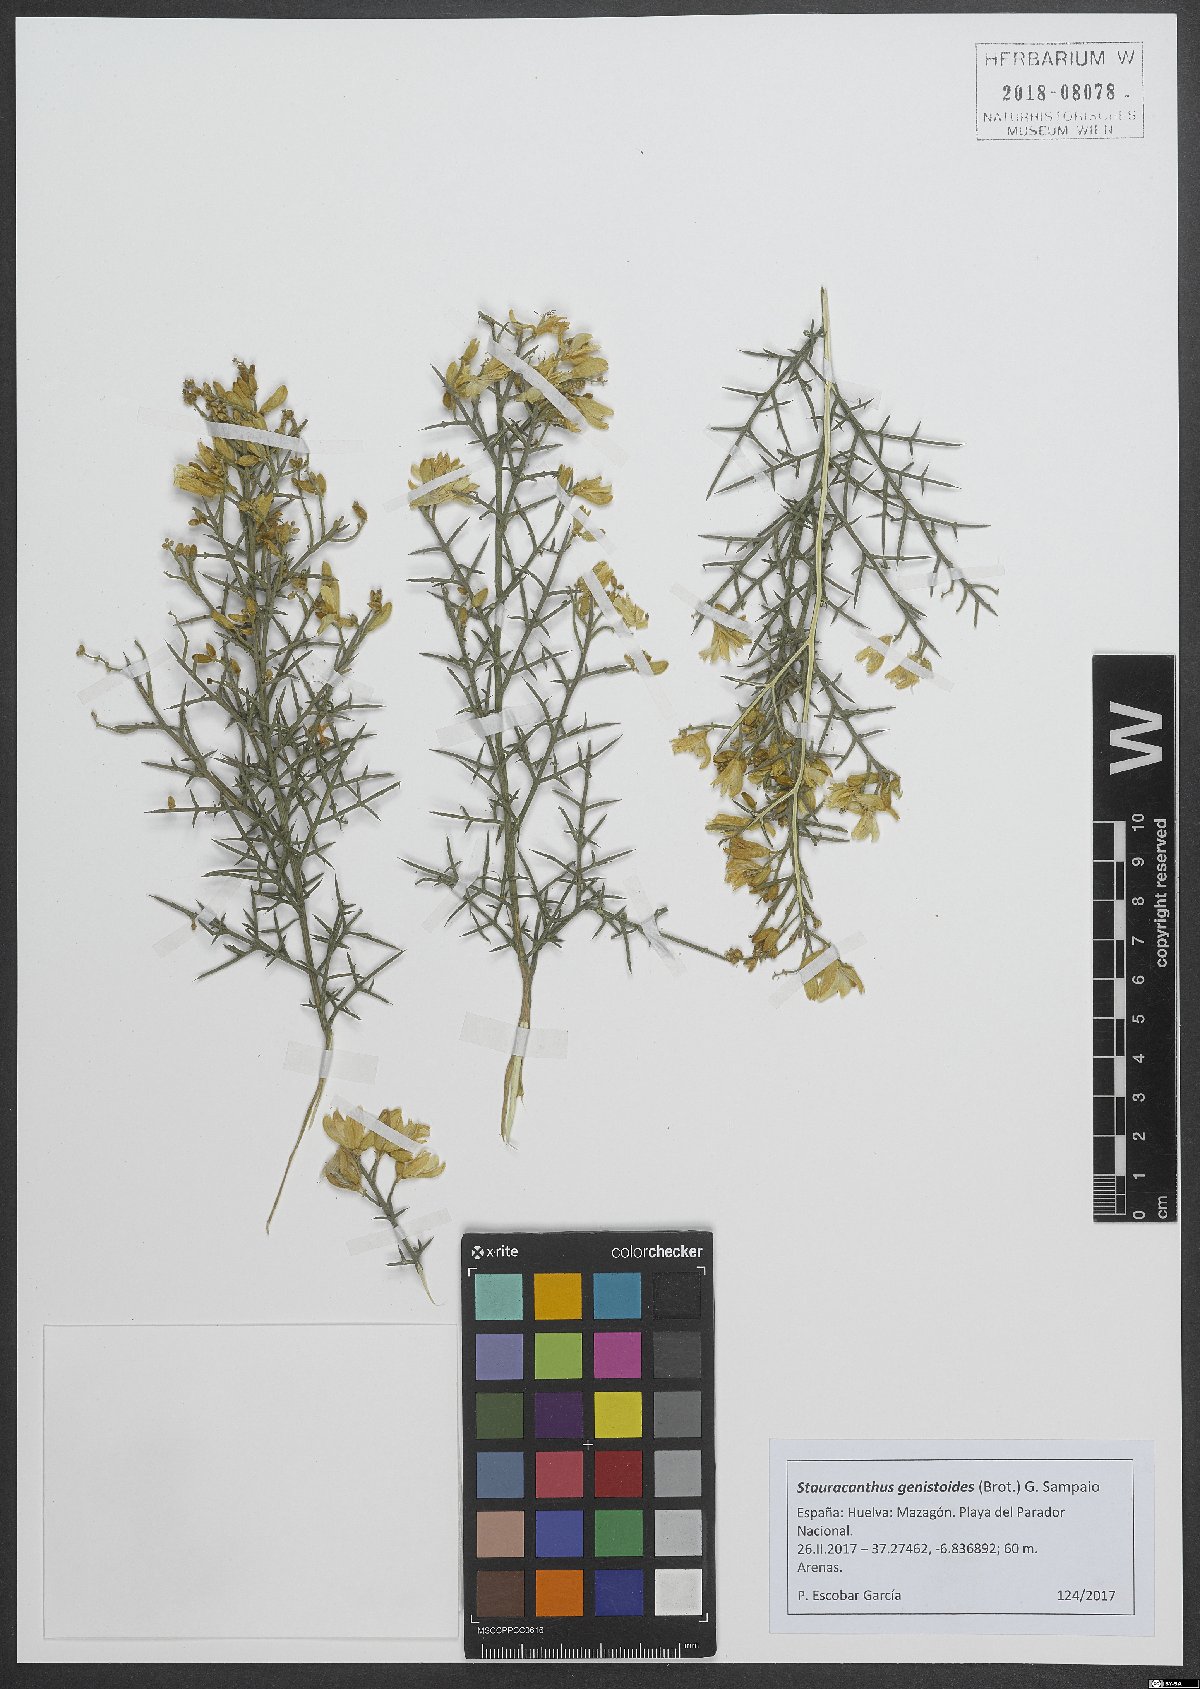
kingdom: Plantae
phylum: Tracheophyta
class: Magnoliopsida
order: Fabales
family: Fabaceae
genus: Stauracanthus
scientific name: Stauracanthus genistoides
